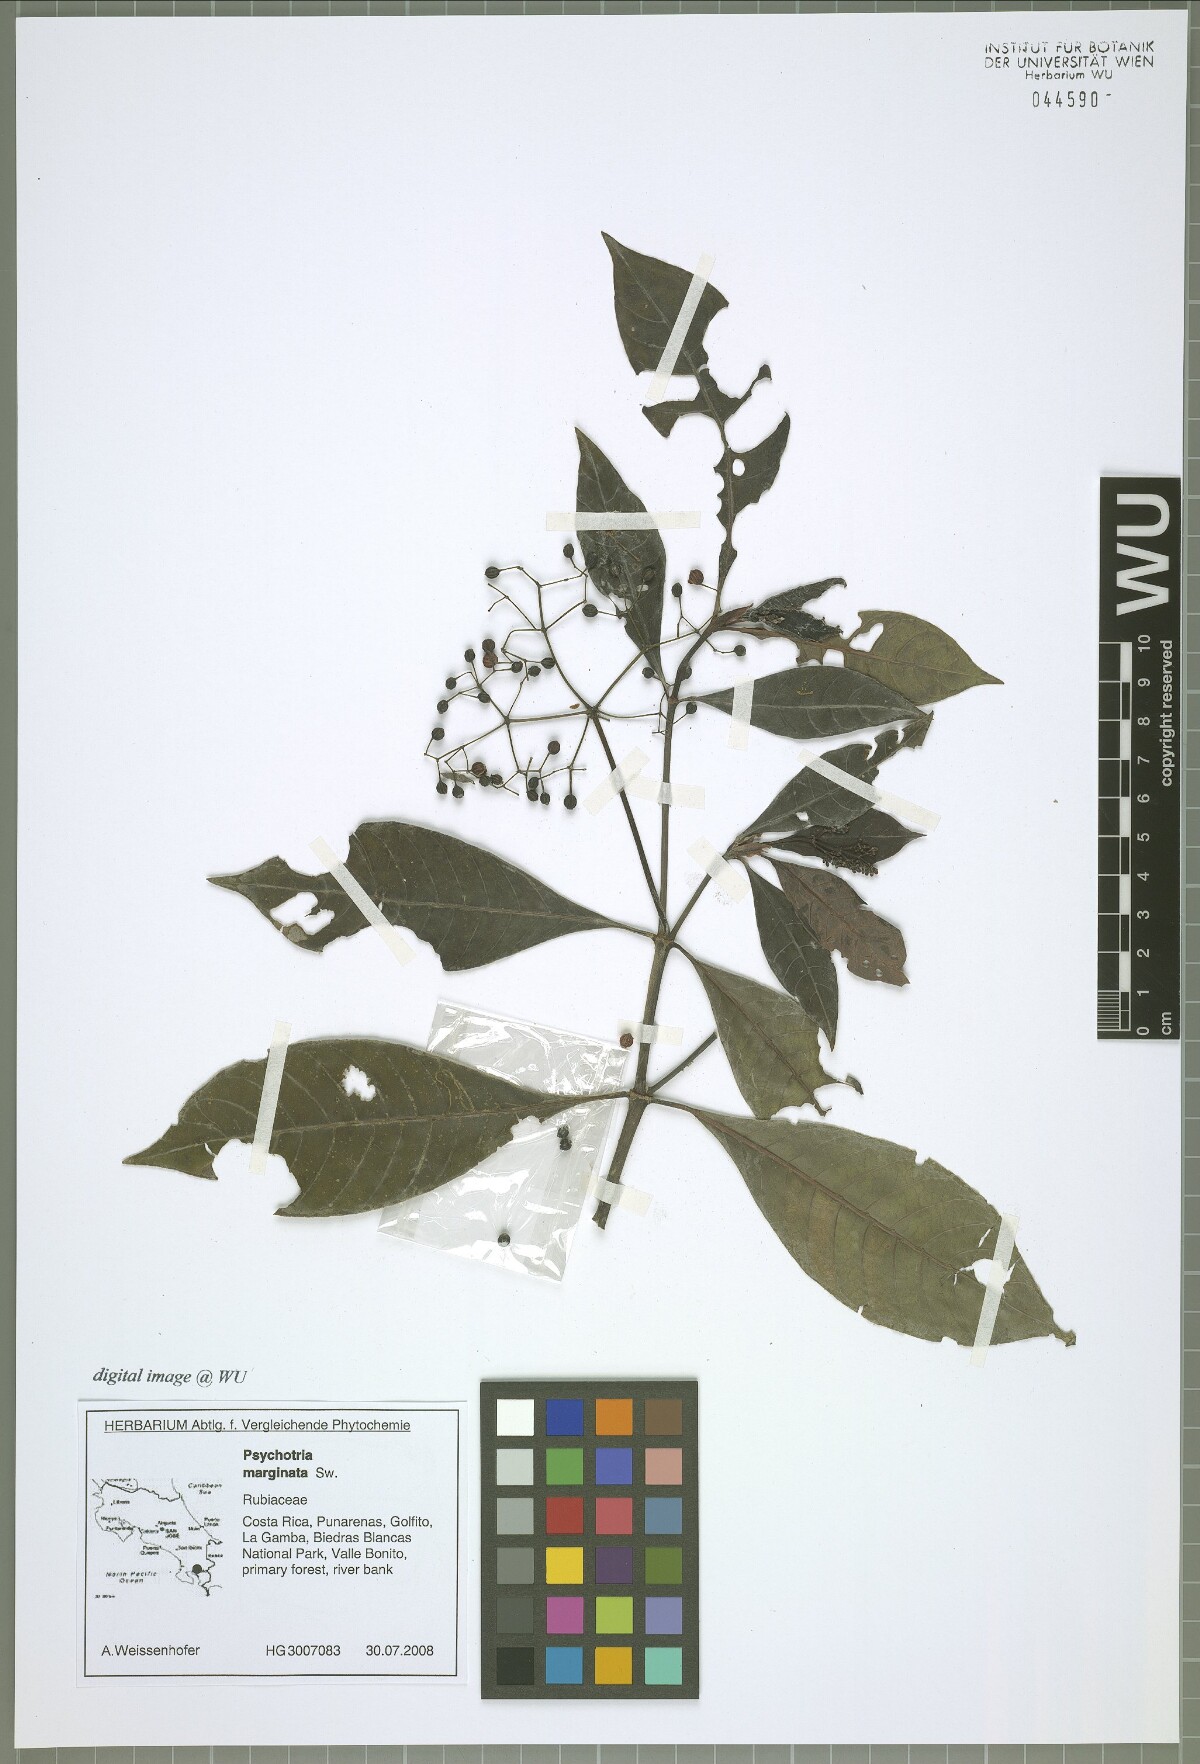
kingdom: Plantae
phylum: Tracheophyta
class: Magnoliopsida
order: Gentianales
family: Rubiaceae
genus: Psychotria
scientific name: Psychotria marginata
